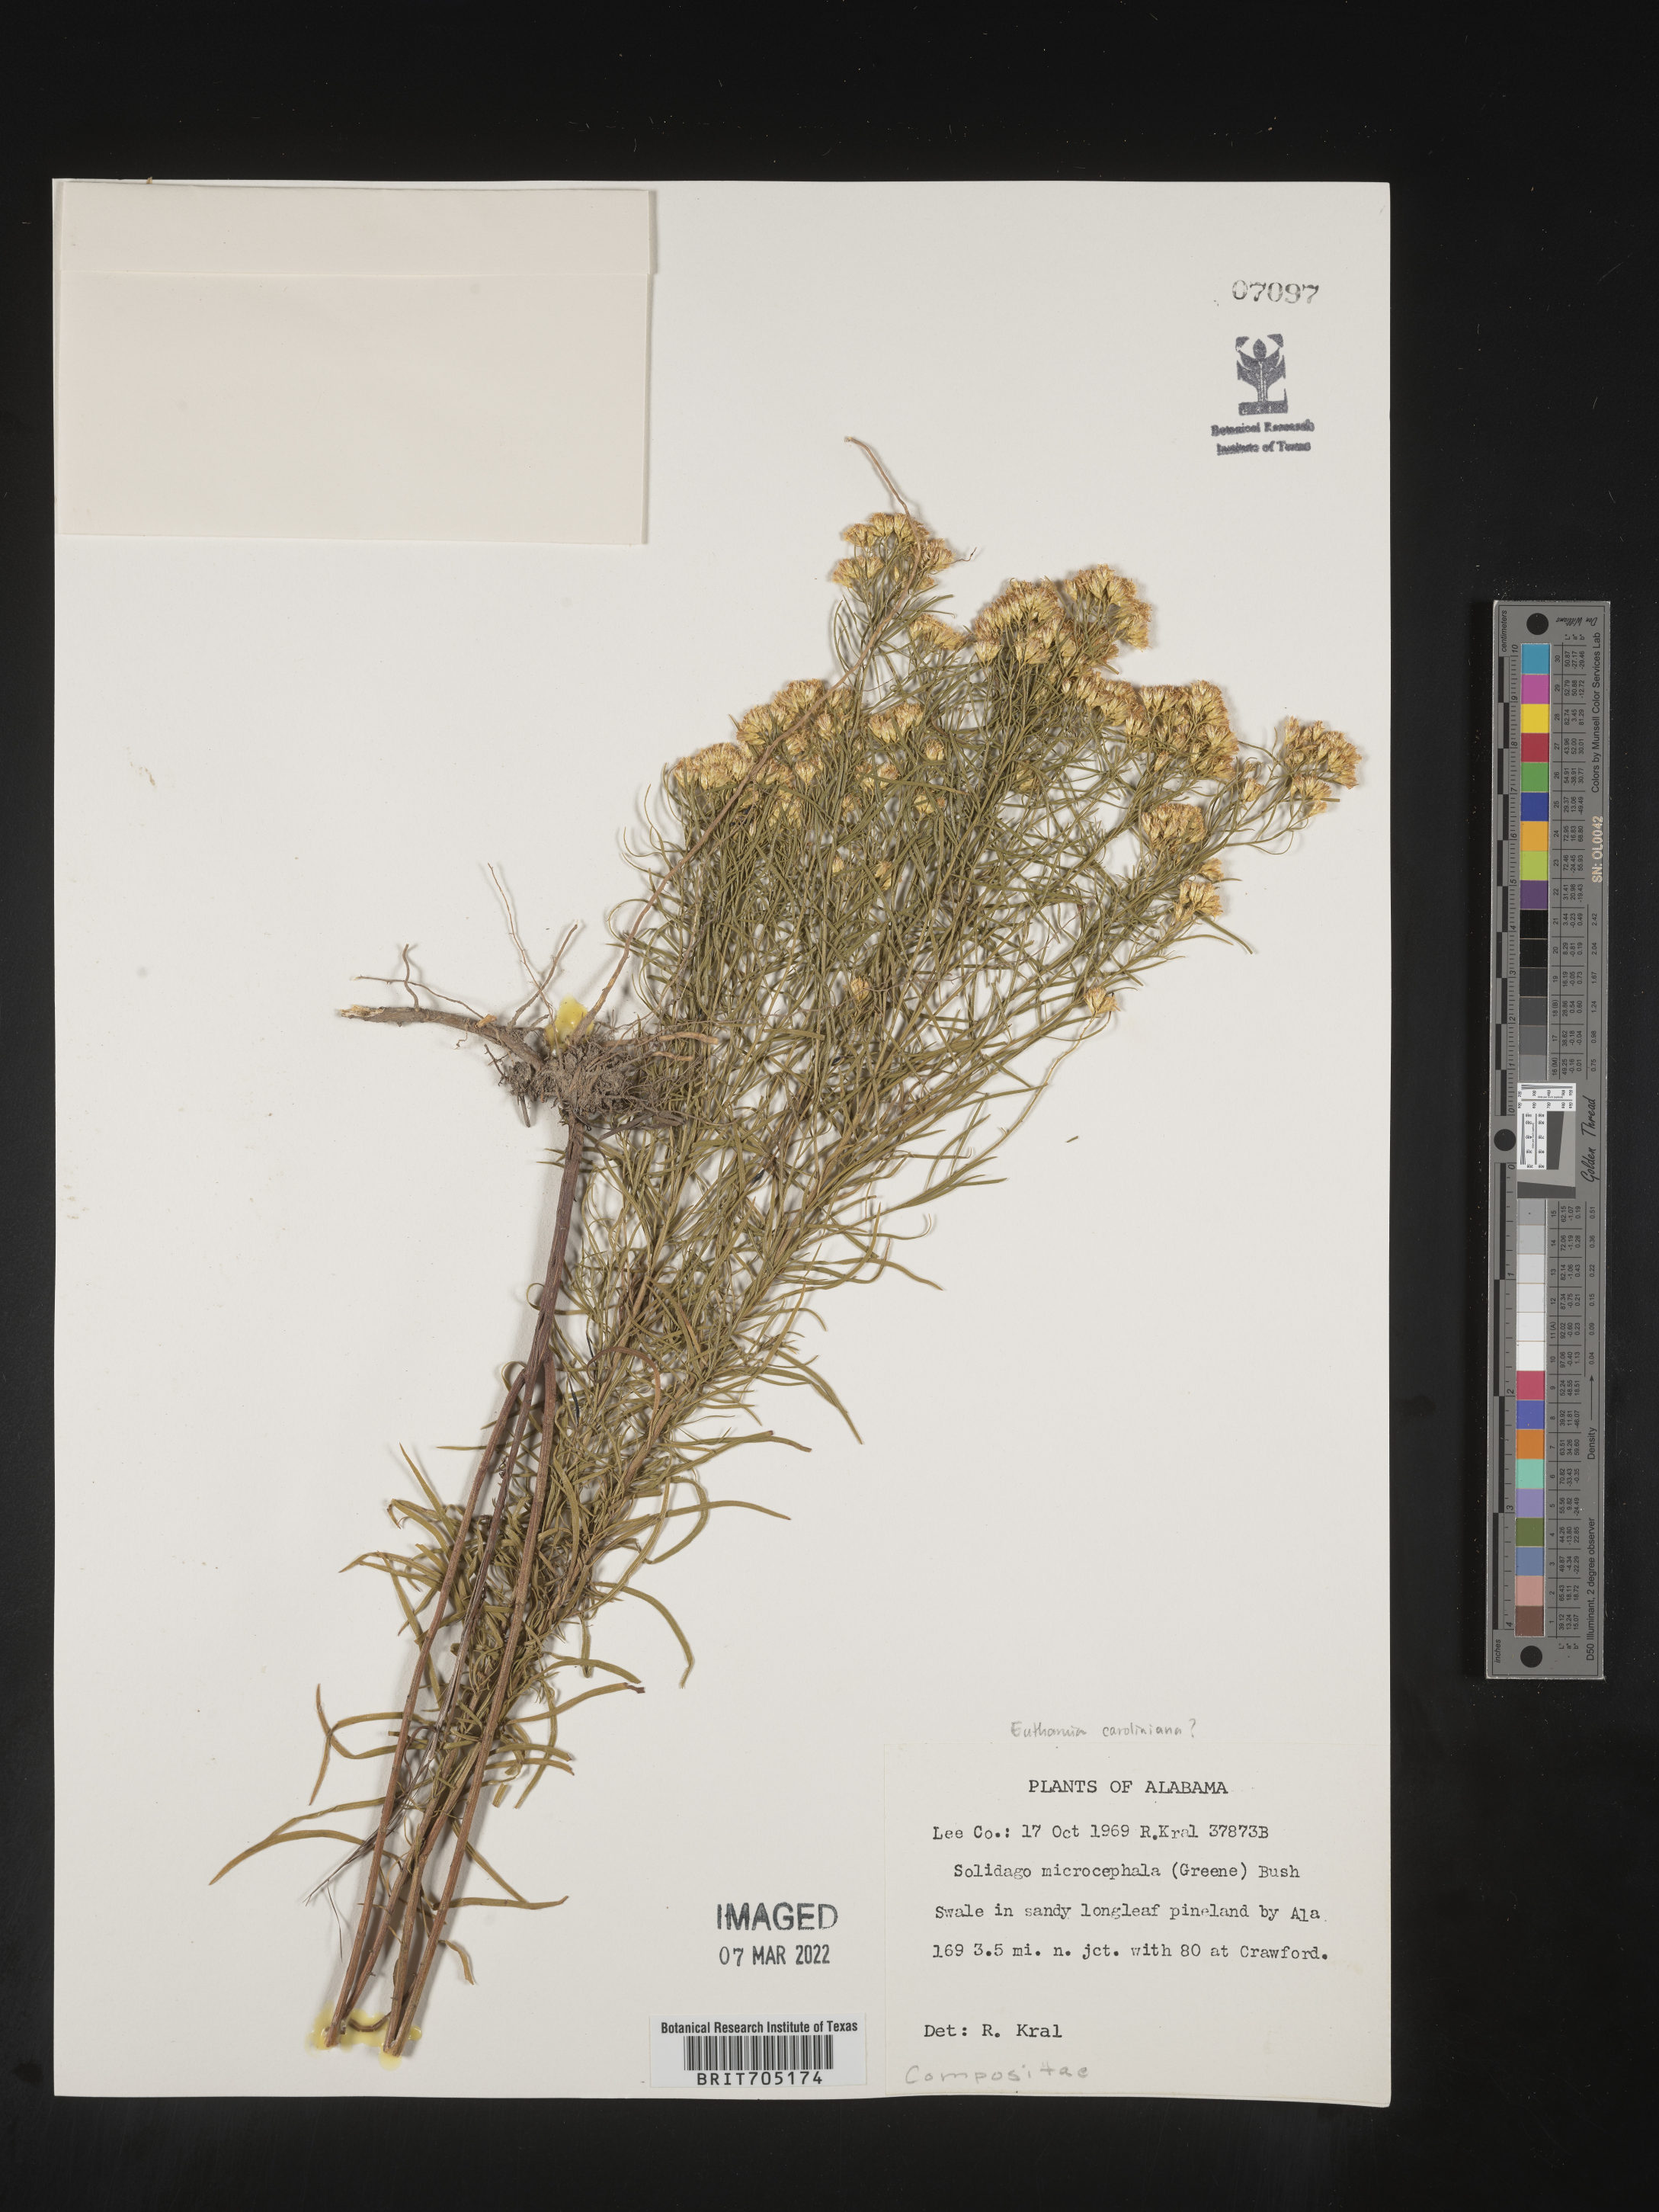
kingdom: Plantae
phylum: Tracheophyta
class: Magnoliopsida
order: Asterales
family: Asteraceae
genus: Euthamia
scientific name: Euthamia
